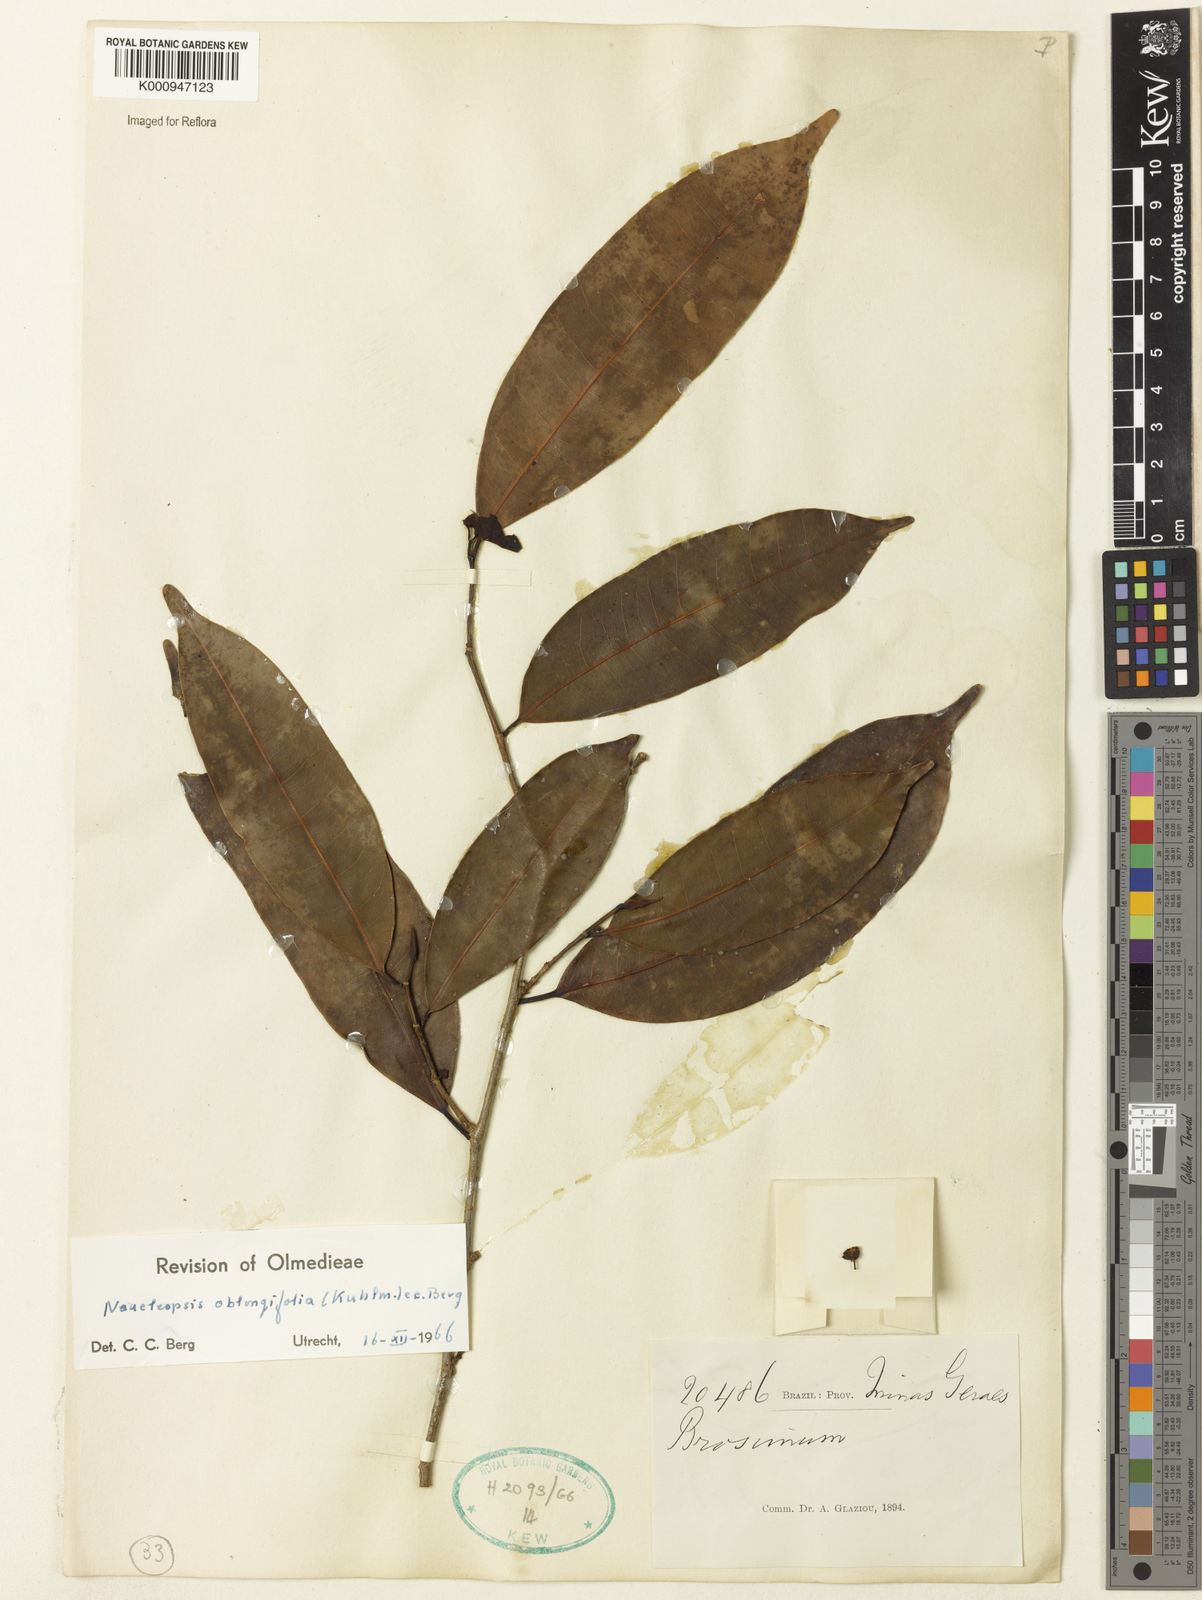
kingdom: Plantae
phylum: Tracheophyta
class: Magnoliopsida
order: Rosales
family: Moraceae
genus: Naucleopsis
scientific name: Naucleopsis oblongifolia
